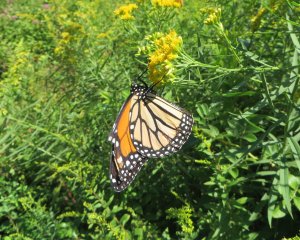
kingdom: Animalia
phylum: Arthropoda
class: Insecta
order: Lepidoptera
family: Nymphalidae
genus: Danaus
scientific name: Danaus plexippus
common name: Monarch
